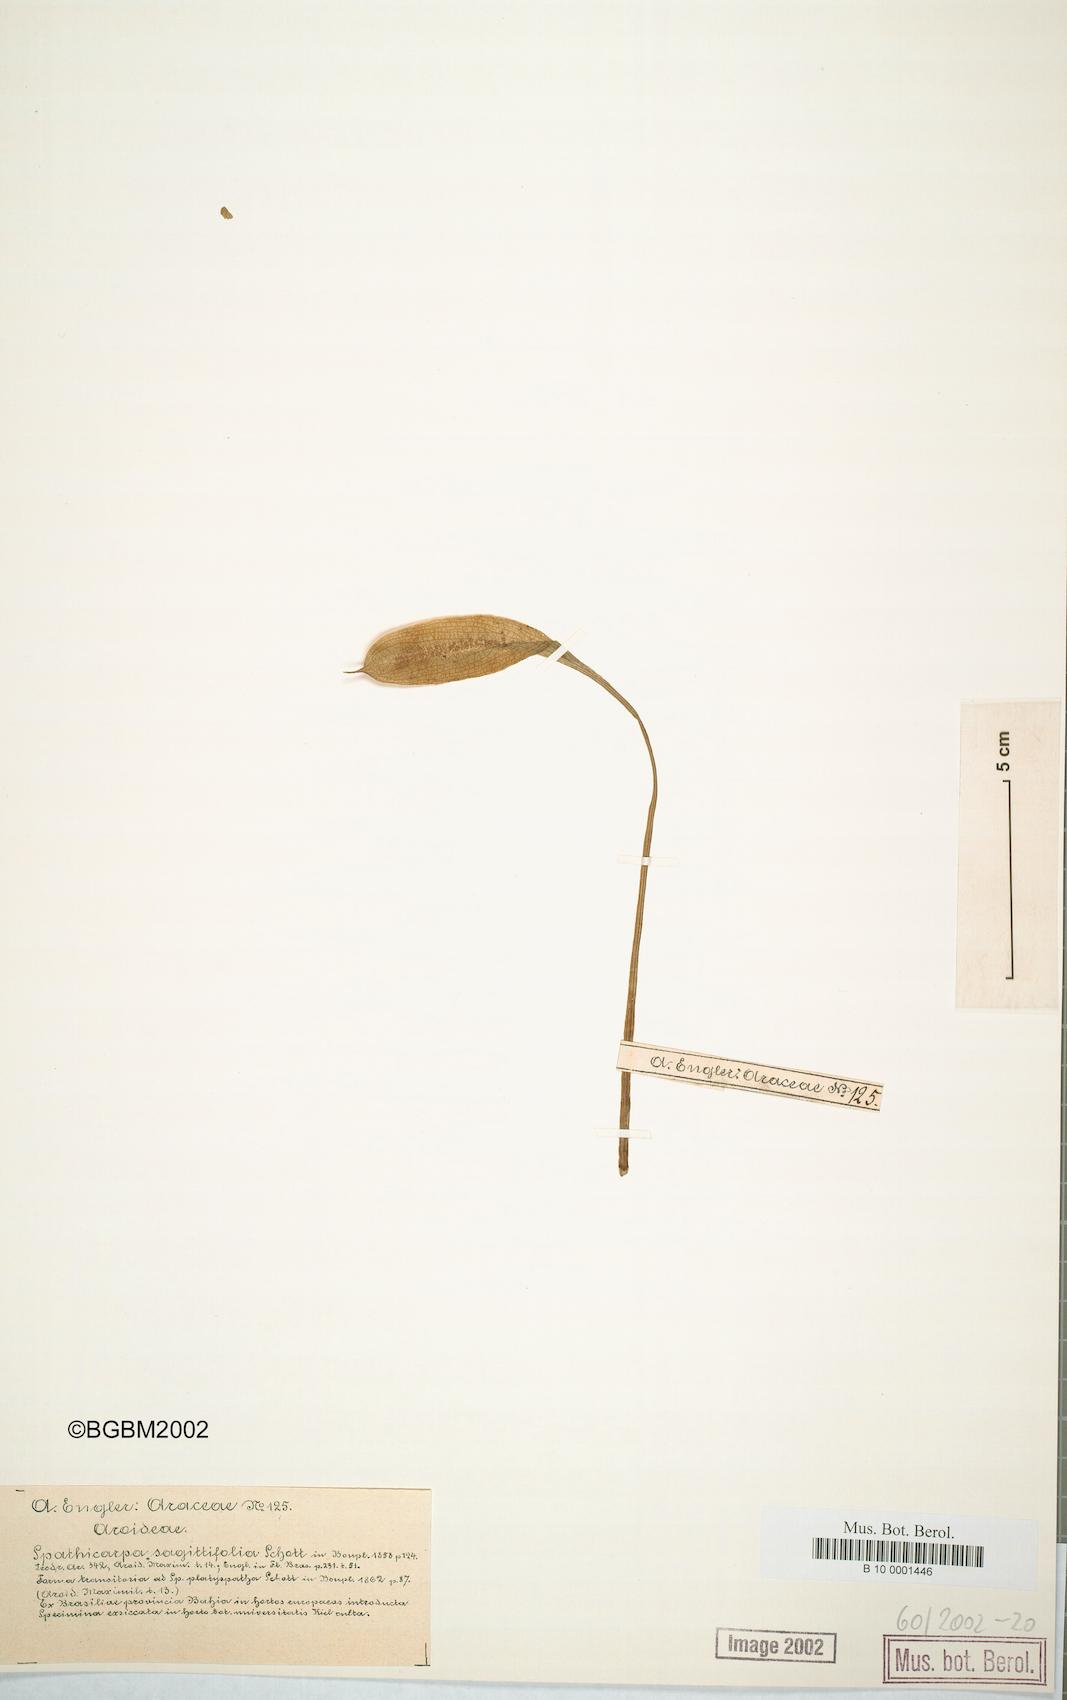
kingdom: Plantae
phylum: Tracheophyta
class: Liliopsida
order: Alismatales
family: Araceae
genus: Spathicarpa
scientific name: Spathicarpa hastifolia
